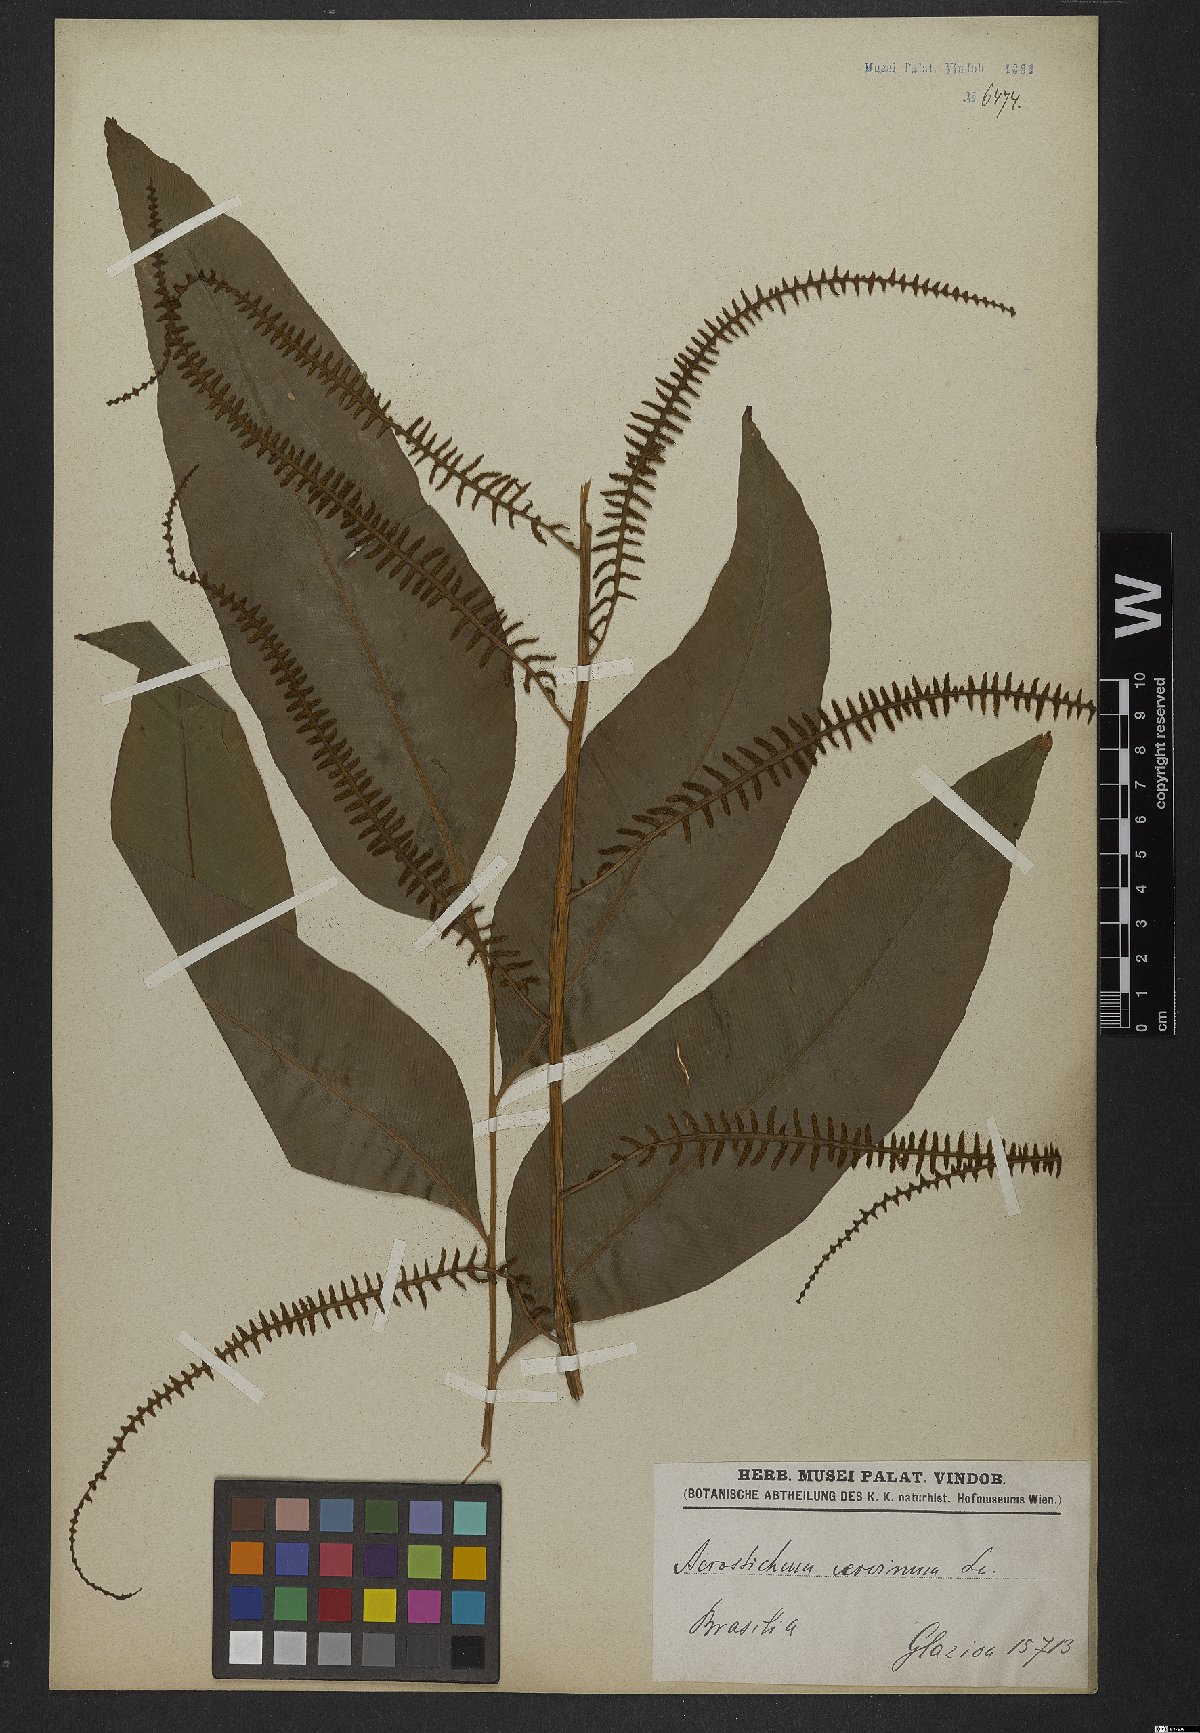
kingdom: Plantae
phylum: Tracheophyta
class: Polypodiopsida
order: Polypodiales
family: Dryopteridaceae
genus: Olfersia
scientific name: Olfersia cervina
